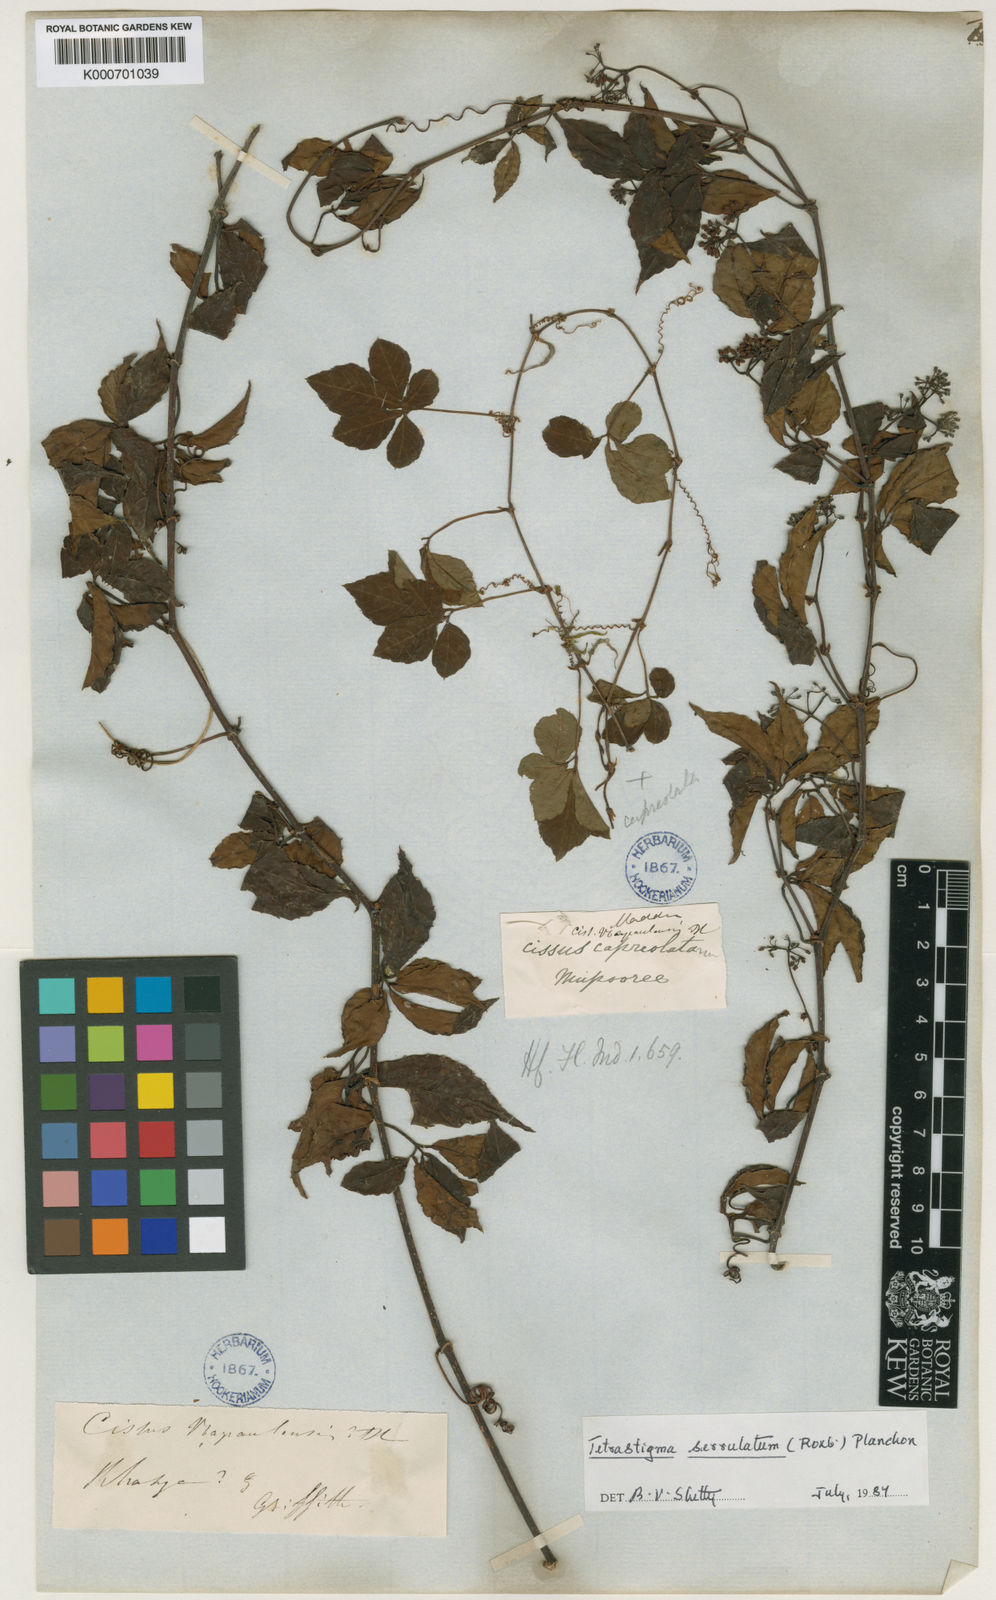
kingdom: Plantae
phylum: Tracheophyta
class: Magnoliopsida
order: Vitales
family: Vitaceae
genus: Tetrastigma
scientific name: Tetrastigma serrulatum
